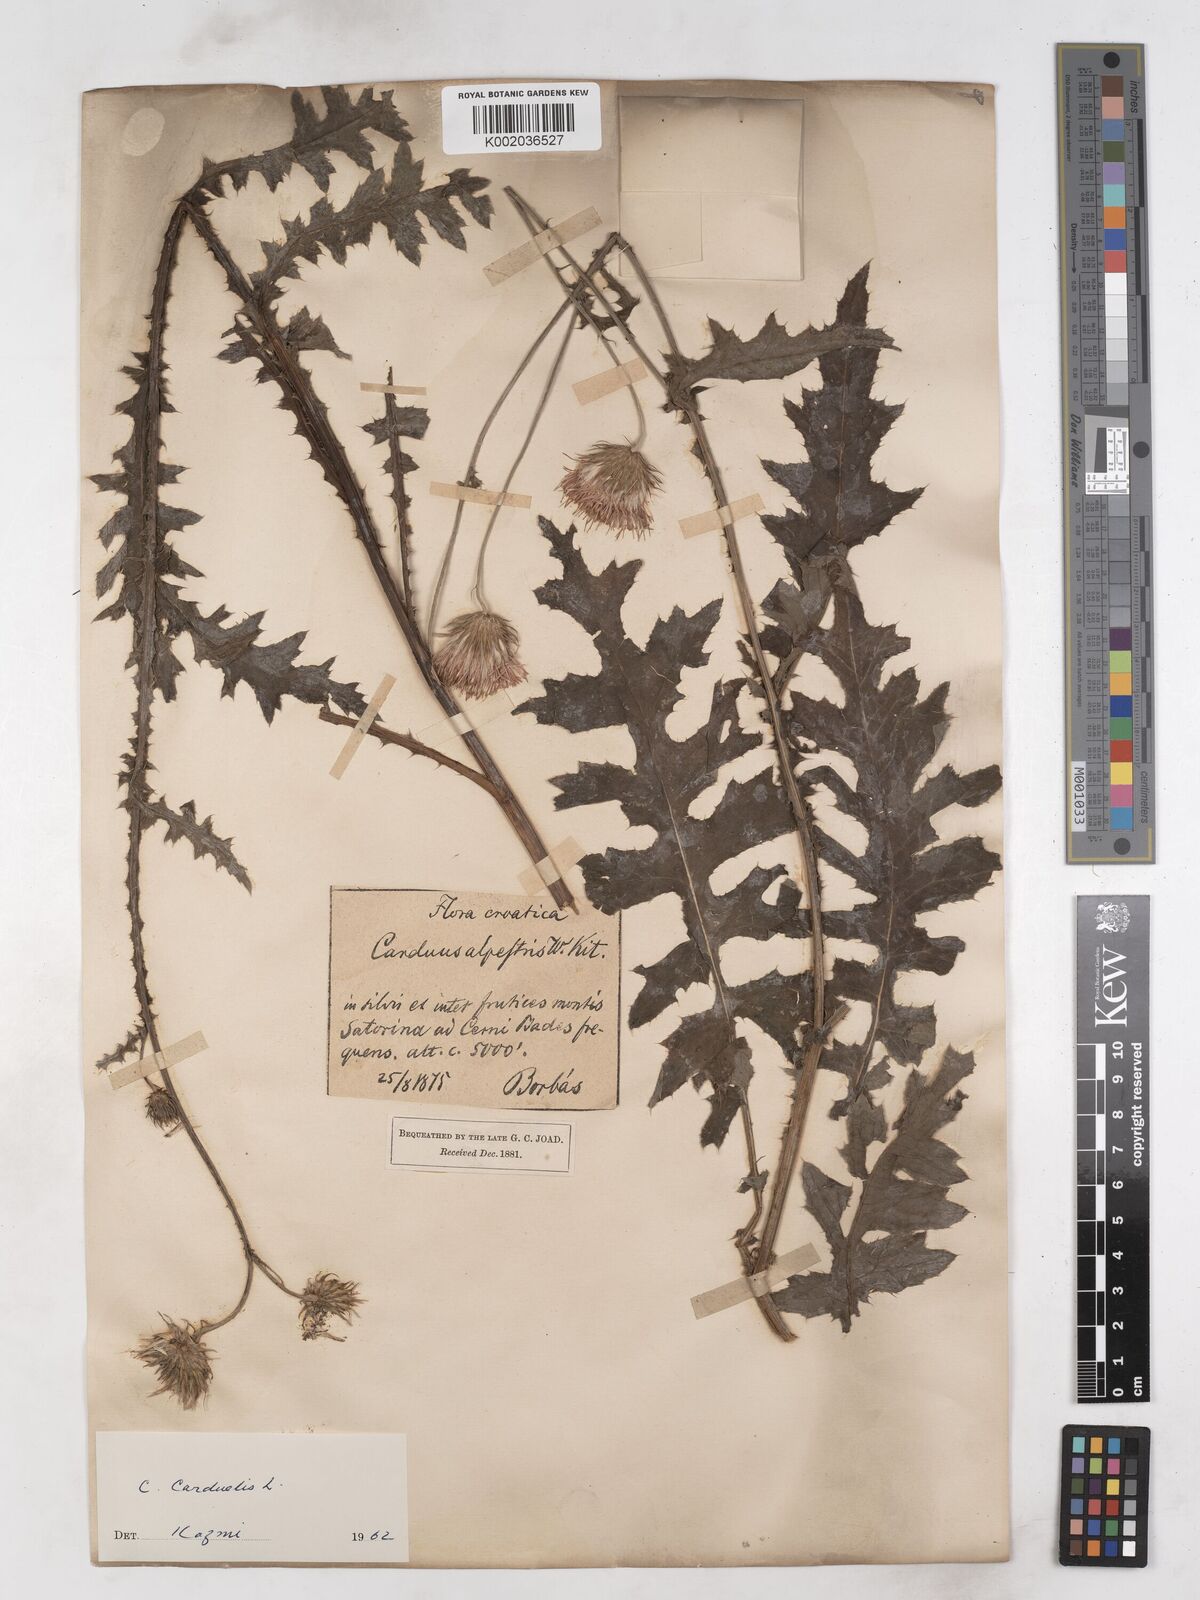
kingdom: Plantae
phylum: Tracheophyta
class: Magnoliopsida
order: Asterales
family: Asteraceae
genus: Carduus
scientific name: Carduus carduelis
